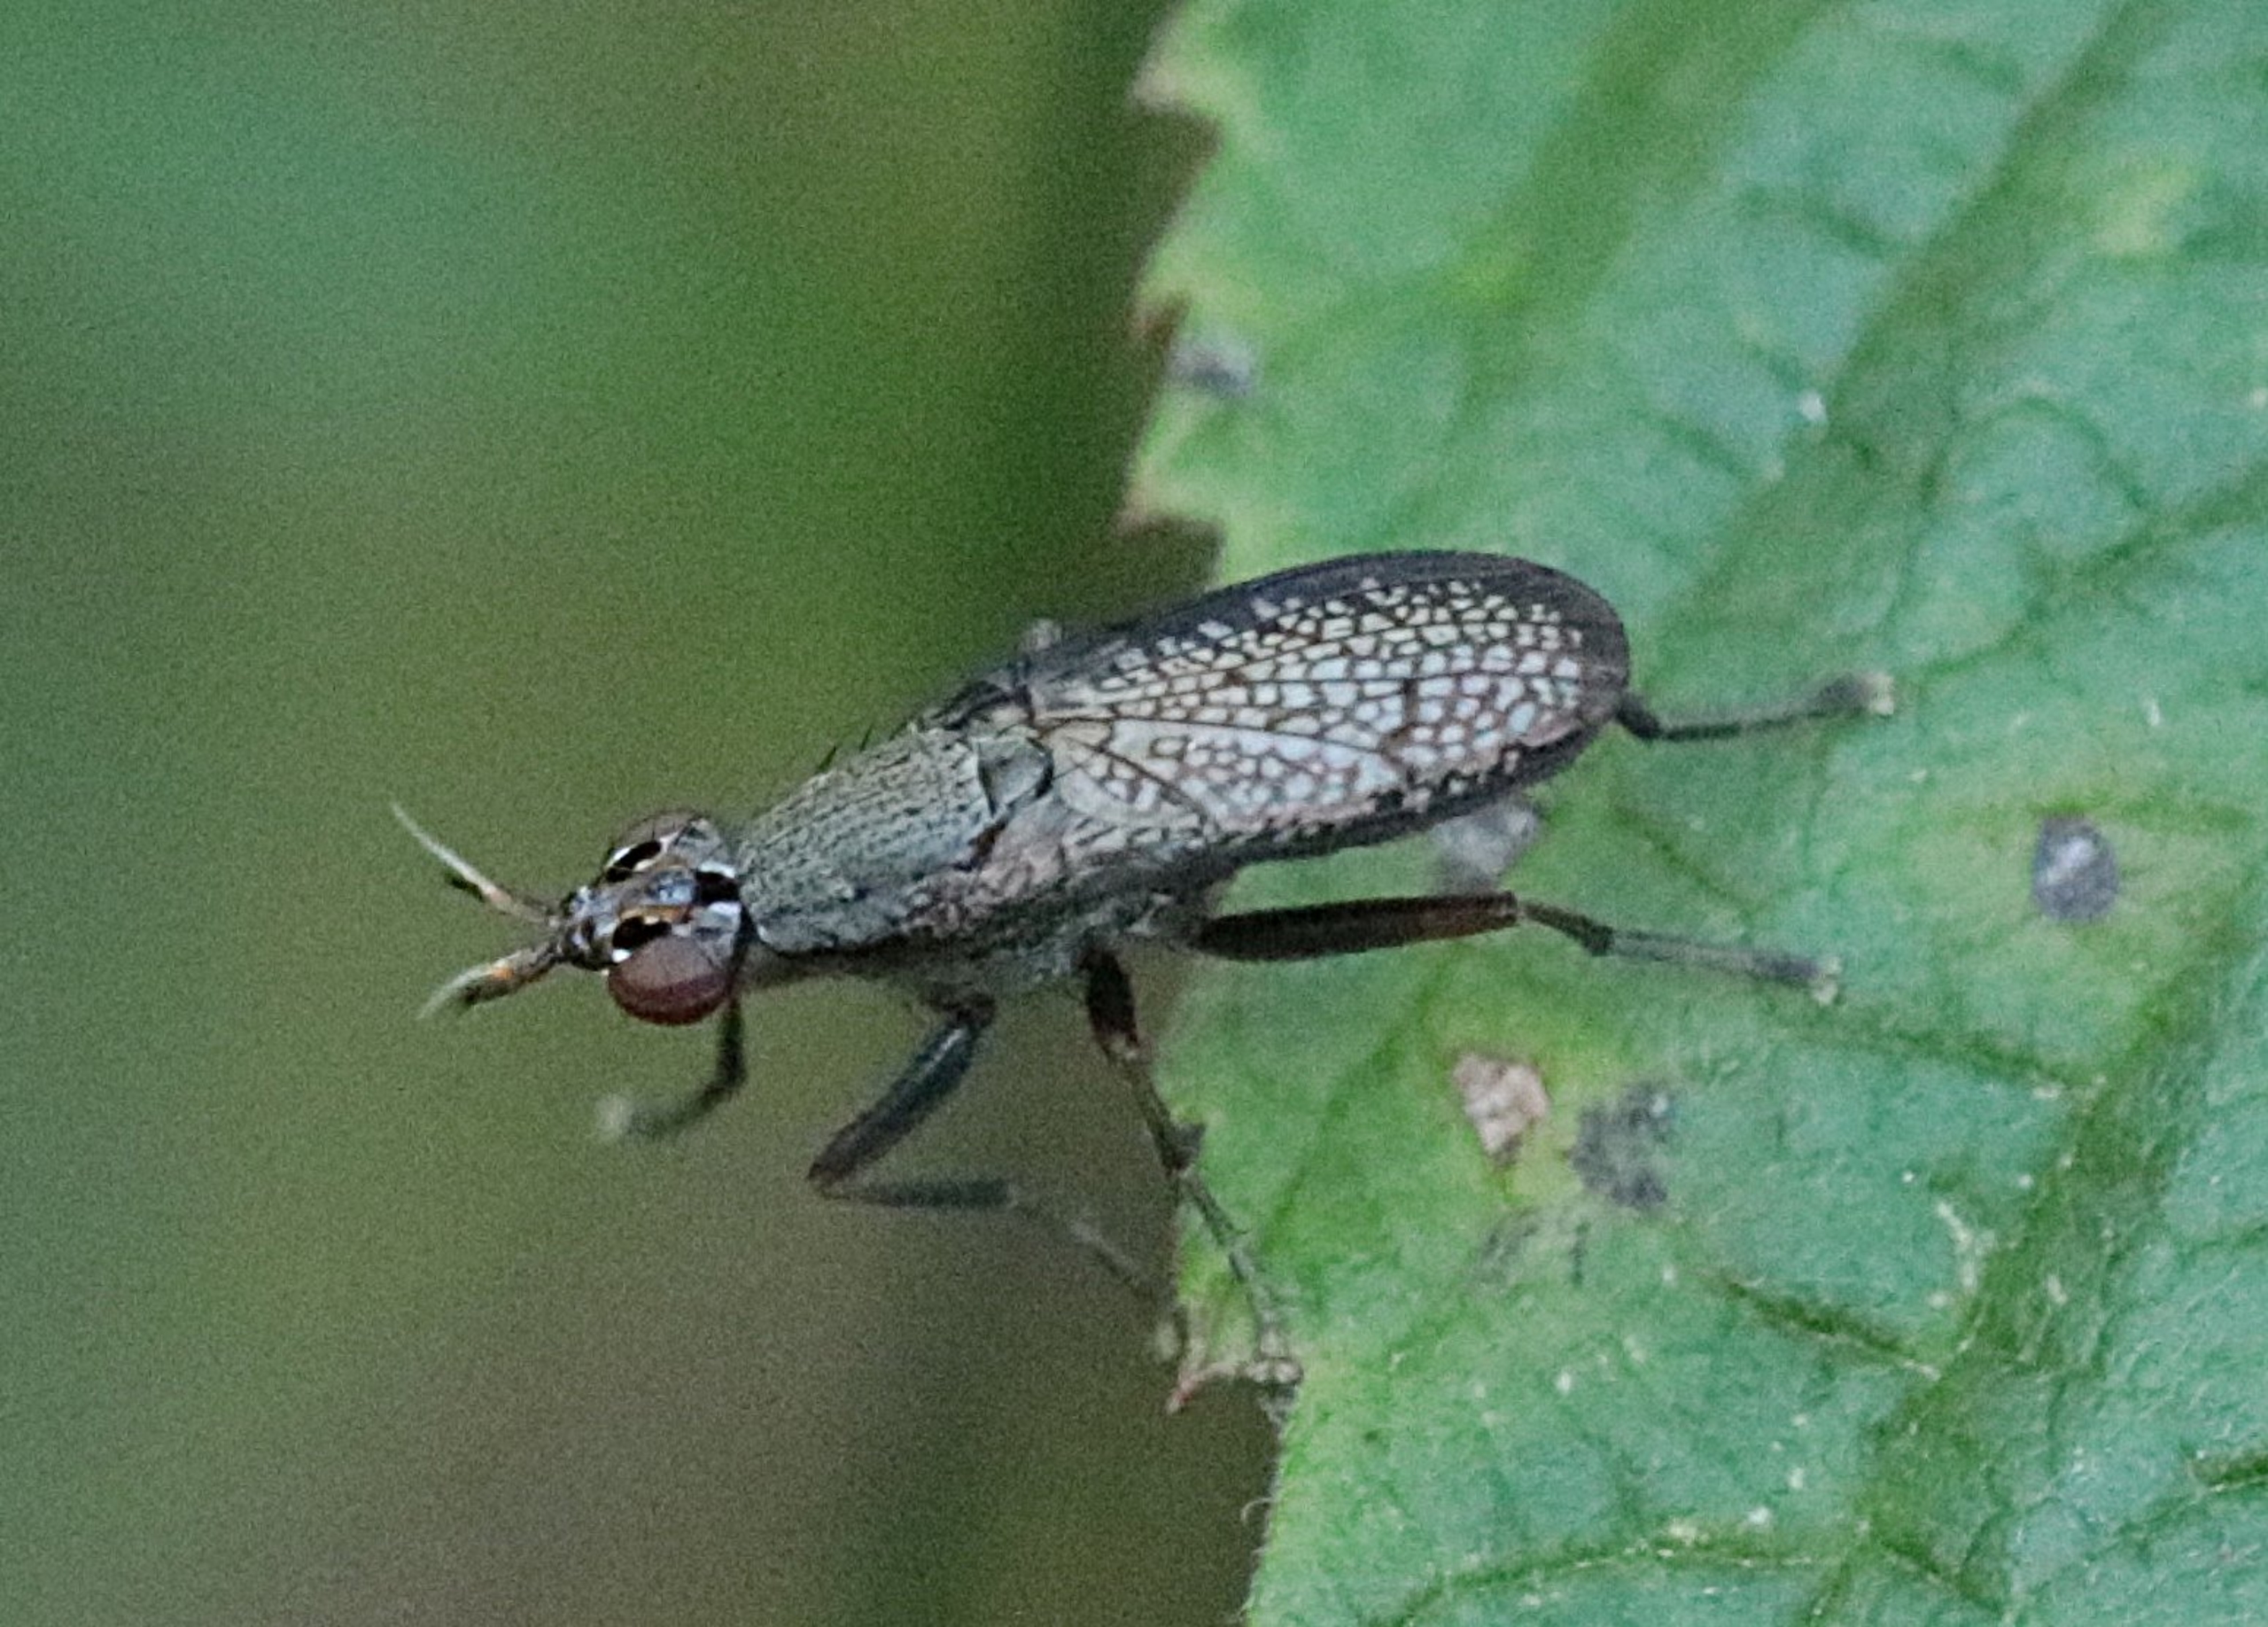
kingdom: Animalia
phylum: Arthropoda
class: Insecta
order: Diptera
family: Sciomyzidae
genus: Coremacera
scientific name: Coremacera marginata
